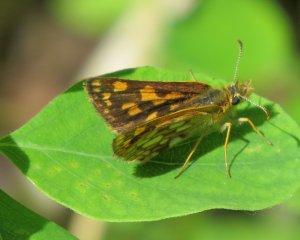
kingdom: Animalia
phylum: Arthropoda
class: Insecta
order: Lepidoptera
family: Hesperiidae
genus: Carterocephalus
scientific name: Carterocephalus palaemon
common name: Chequered Skipper
